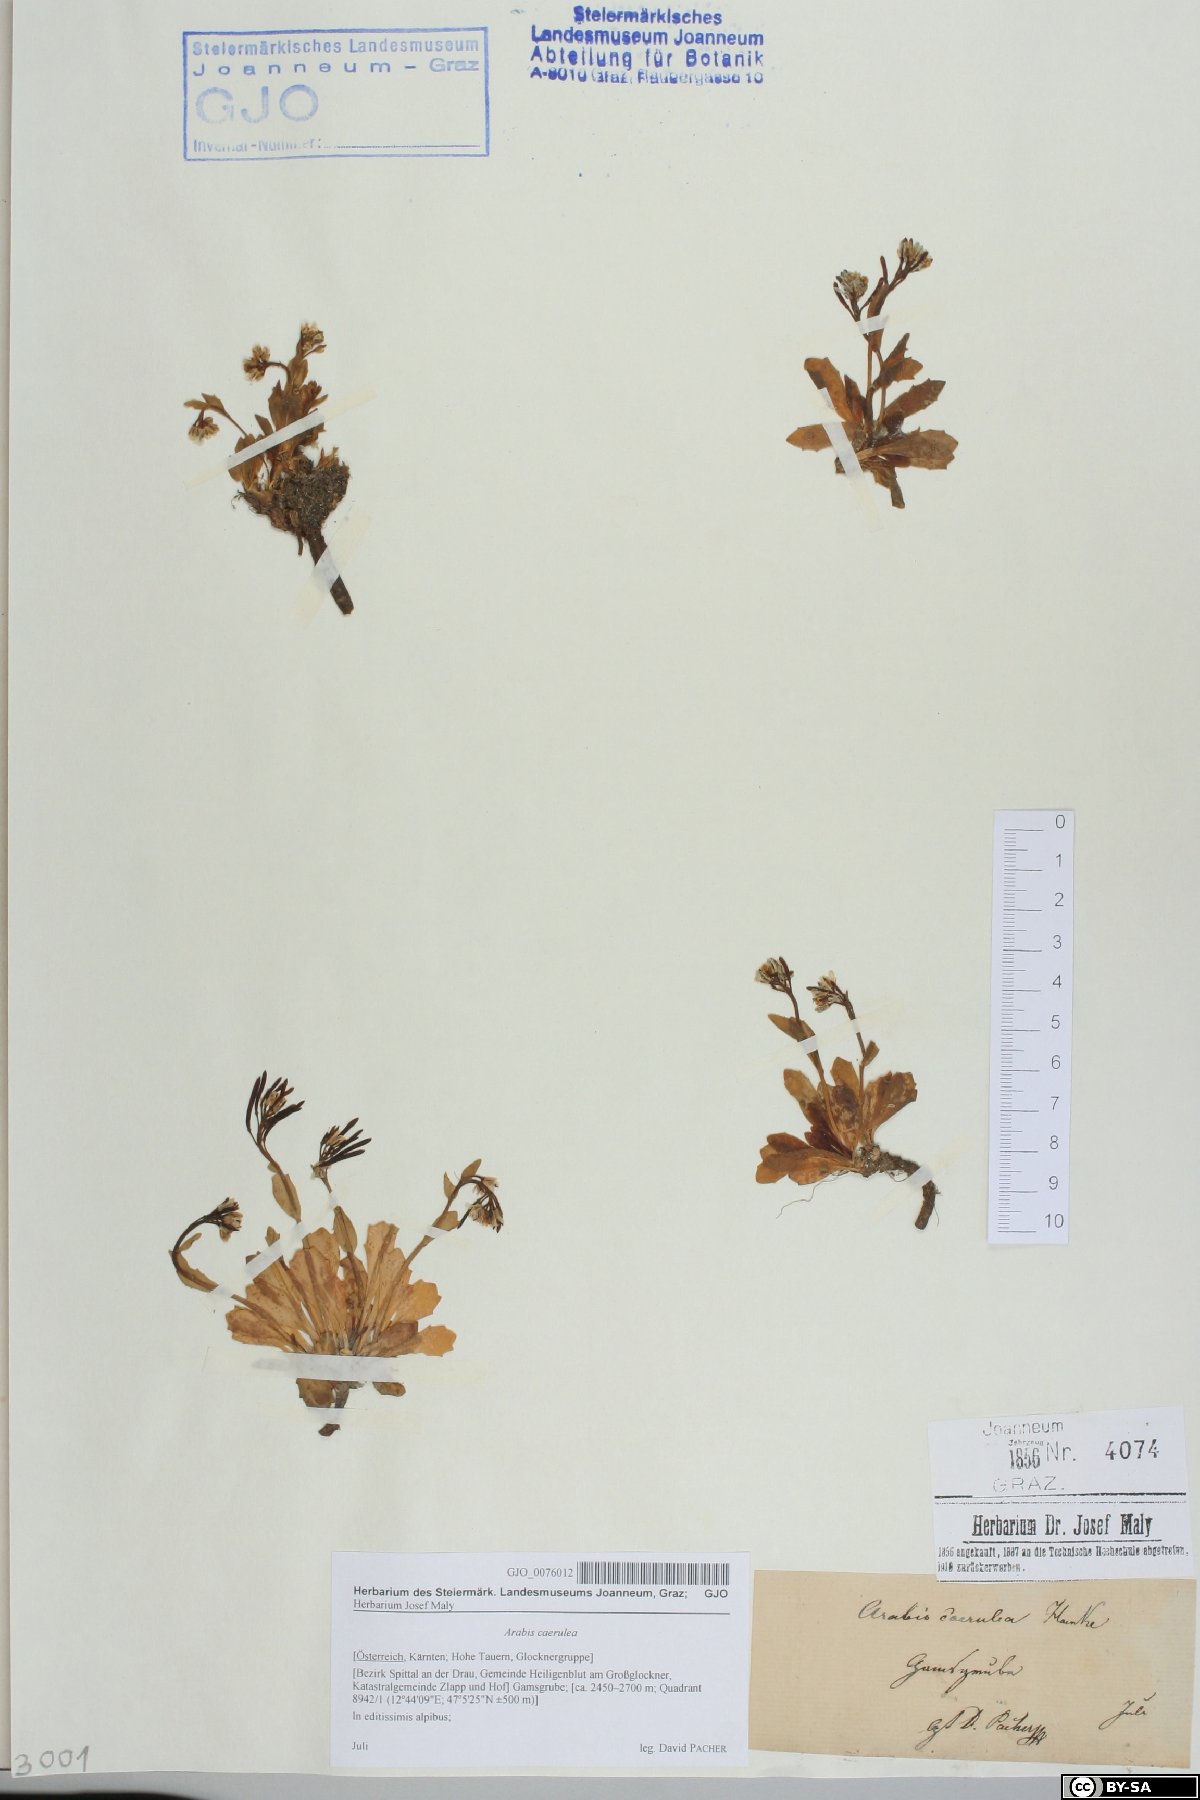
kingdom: Plantae
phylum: Tracheophyta
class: Magnoliopsida
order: Brassicales
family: Brassicaceae
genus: Arabis
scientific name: Arabis caerulea
